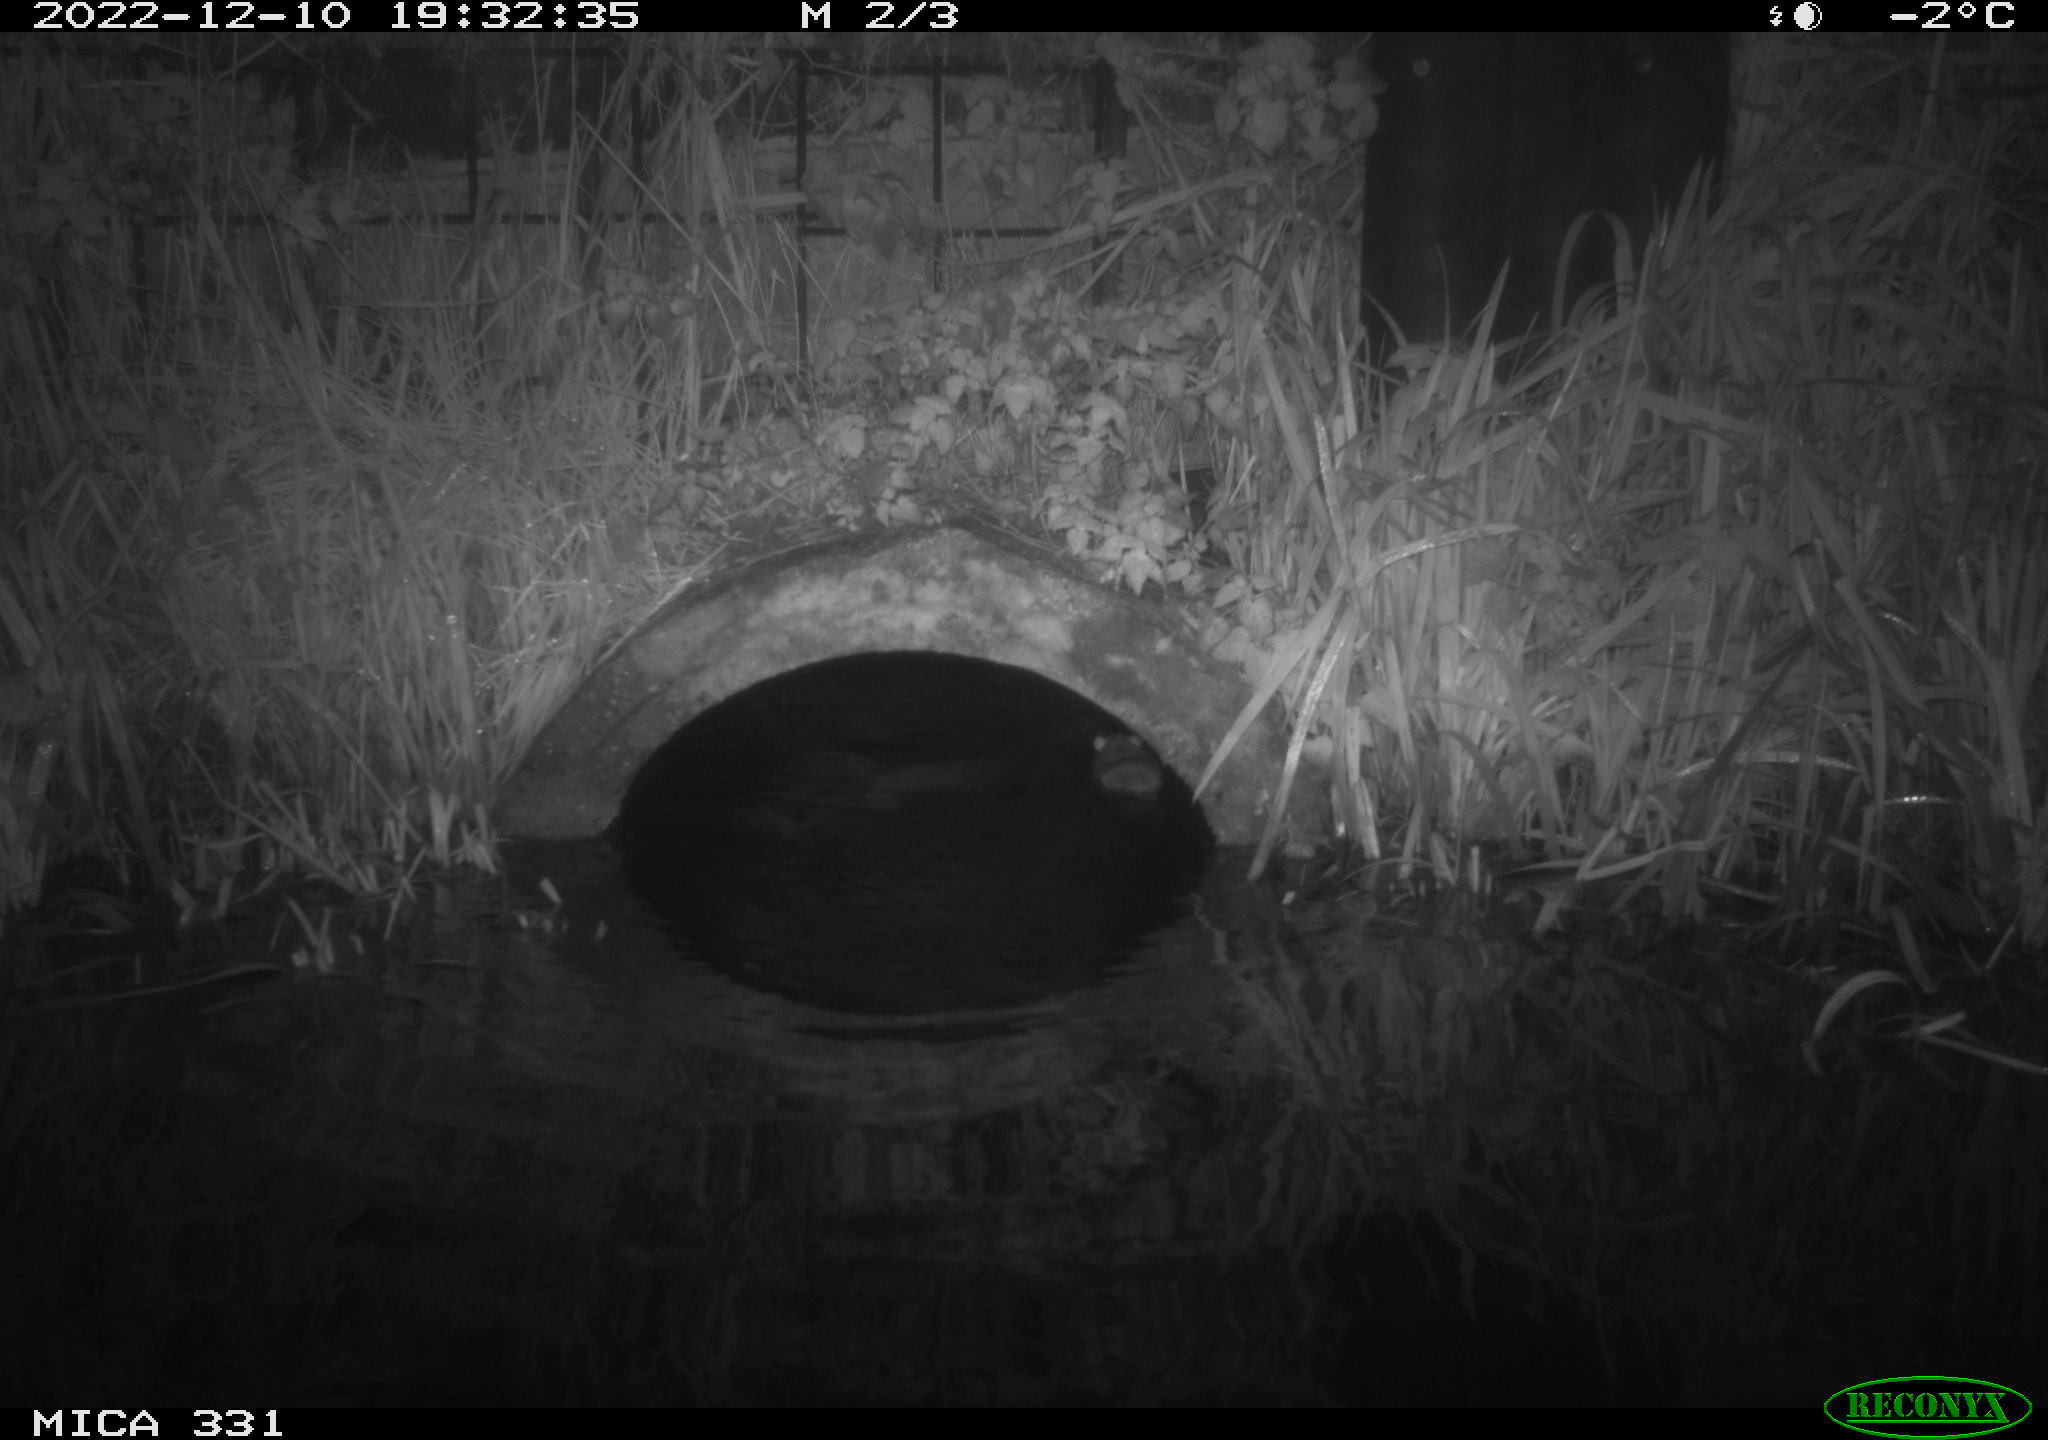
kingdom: Animalia
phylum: Chordata
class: Mammalia
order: Rodentia
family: Muridae
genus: Rattus
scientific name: Rattus norvegicus
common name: Brown rat
